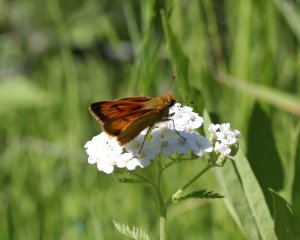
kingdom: Animalia
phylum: Arthropoda
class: Insecta
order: Lepidoptera
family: Hesperiidae
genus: Atrytone
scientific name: Atrytone delaware
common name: Delaware Skipper
